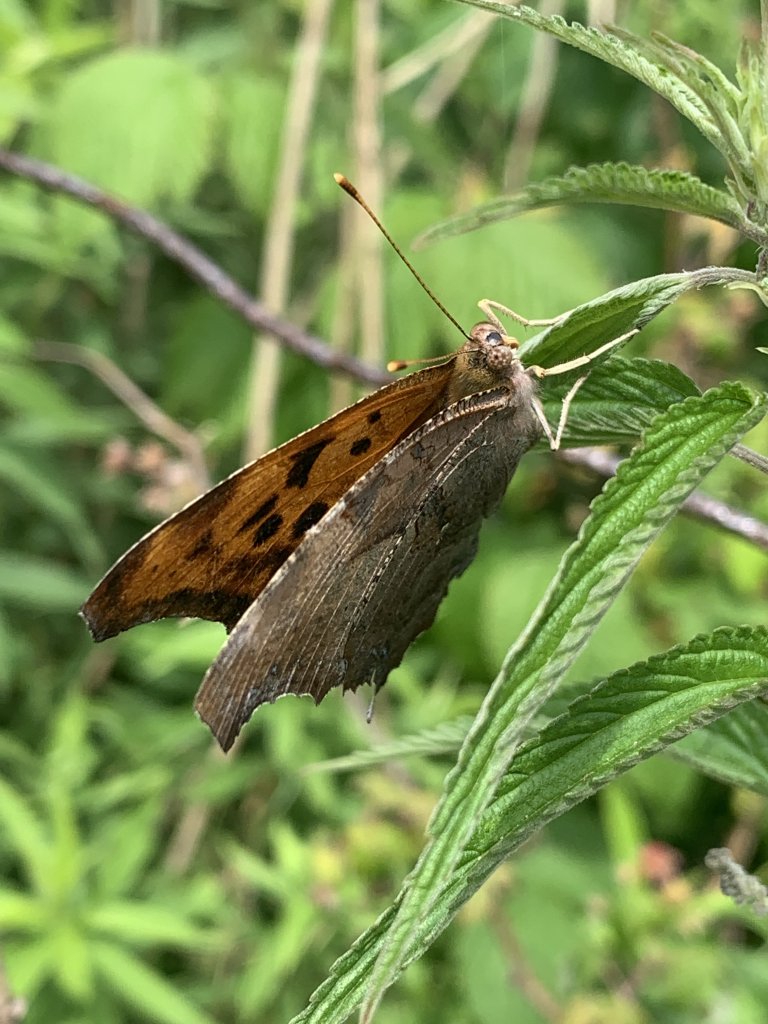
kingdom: Animalia
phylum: Arthropoda
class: Insecta
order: Lepidoptera
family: Nymphalidae
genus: Polygonia
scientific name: Polygonia interrogationis
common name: Question Mark
